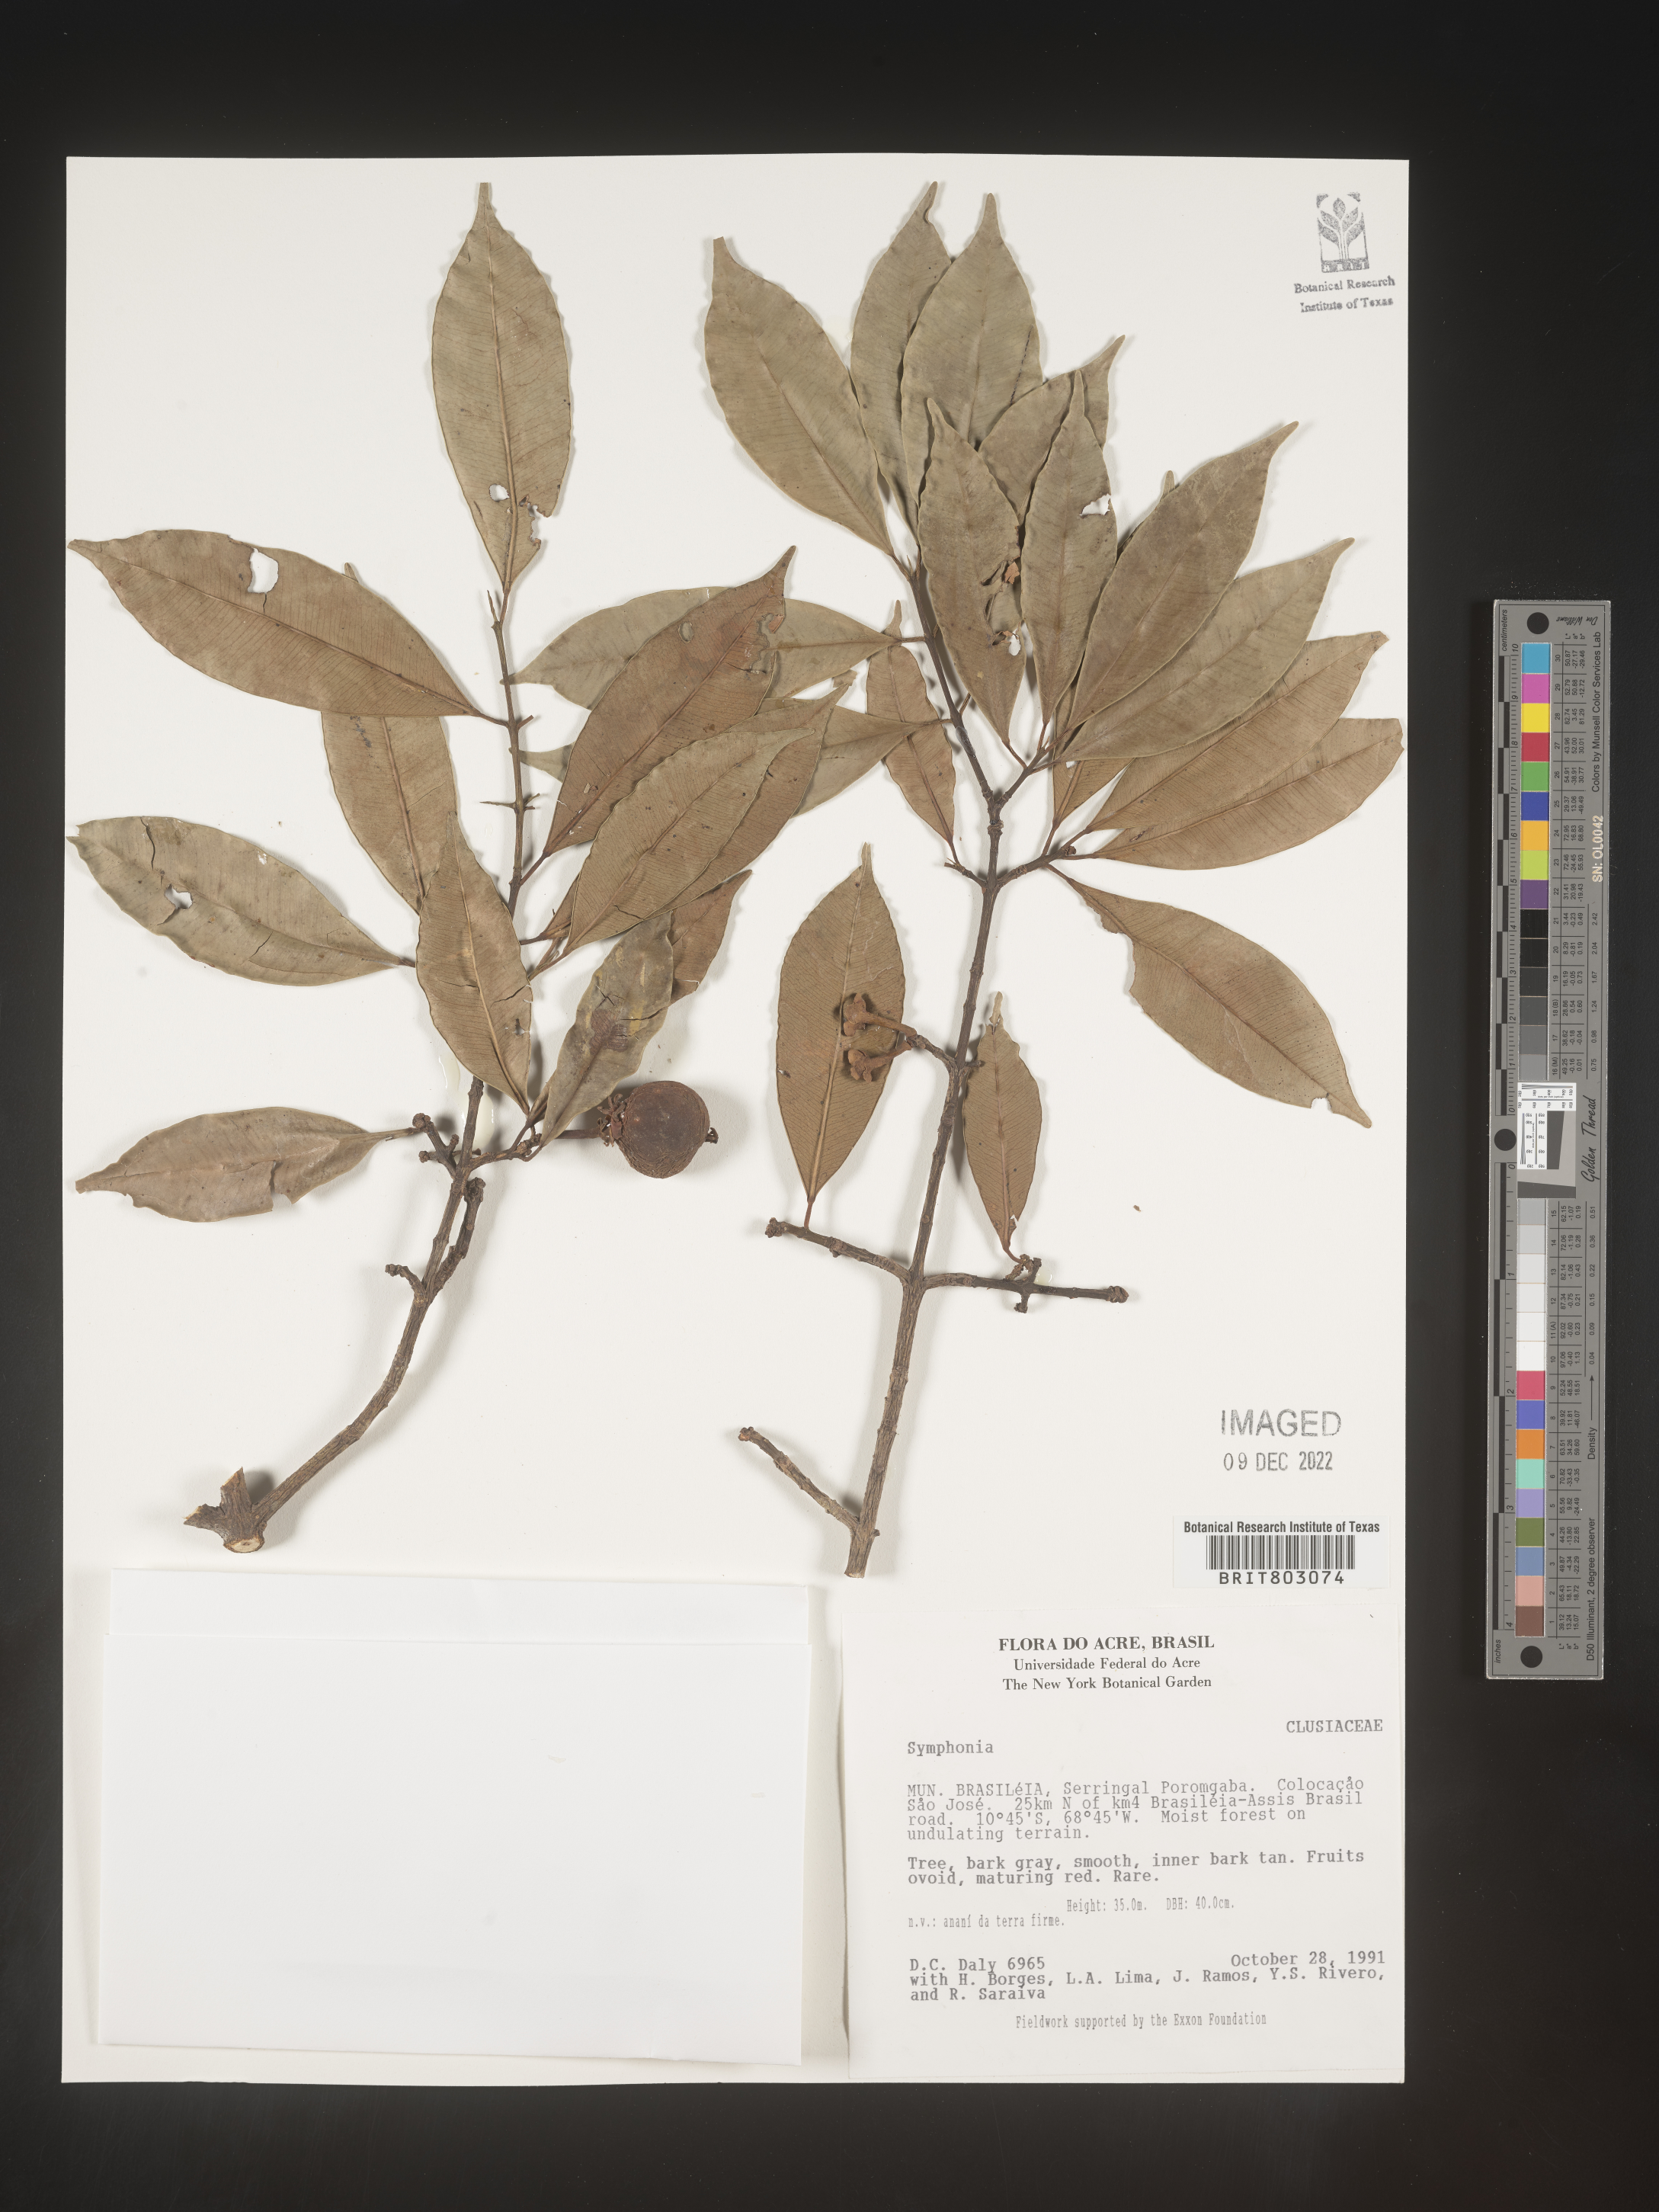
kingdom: Plantae
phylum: Tracheophyta
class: Magnoliopsida
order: Malpighiales
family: Clusiaceae
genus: Symphonia
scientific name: Symphonia
